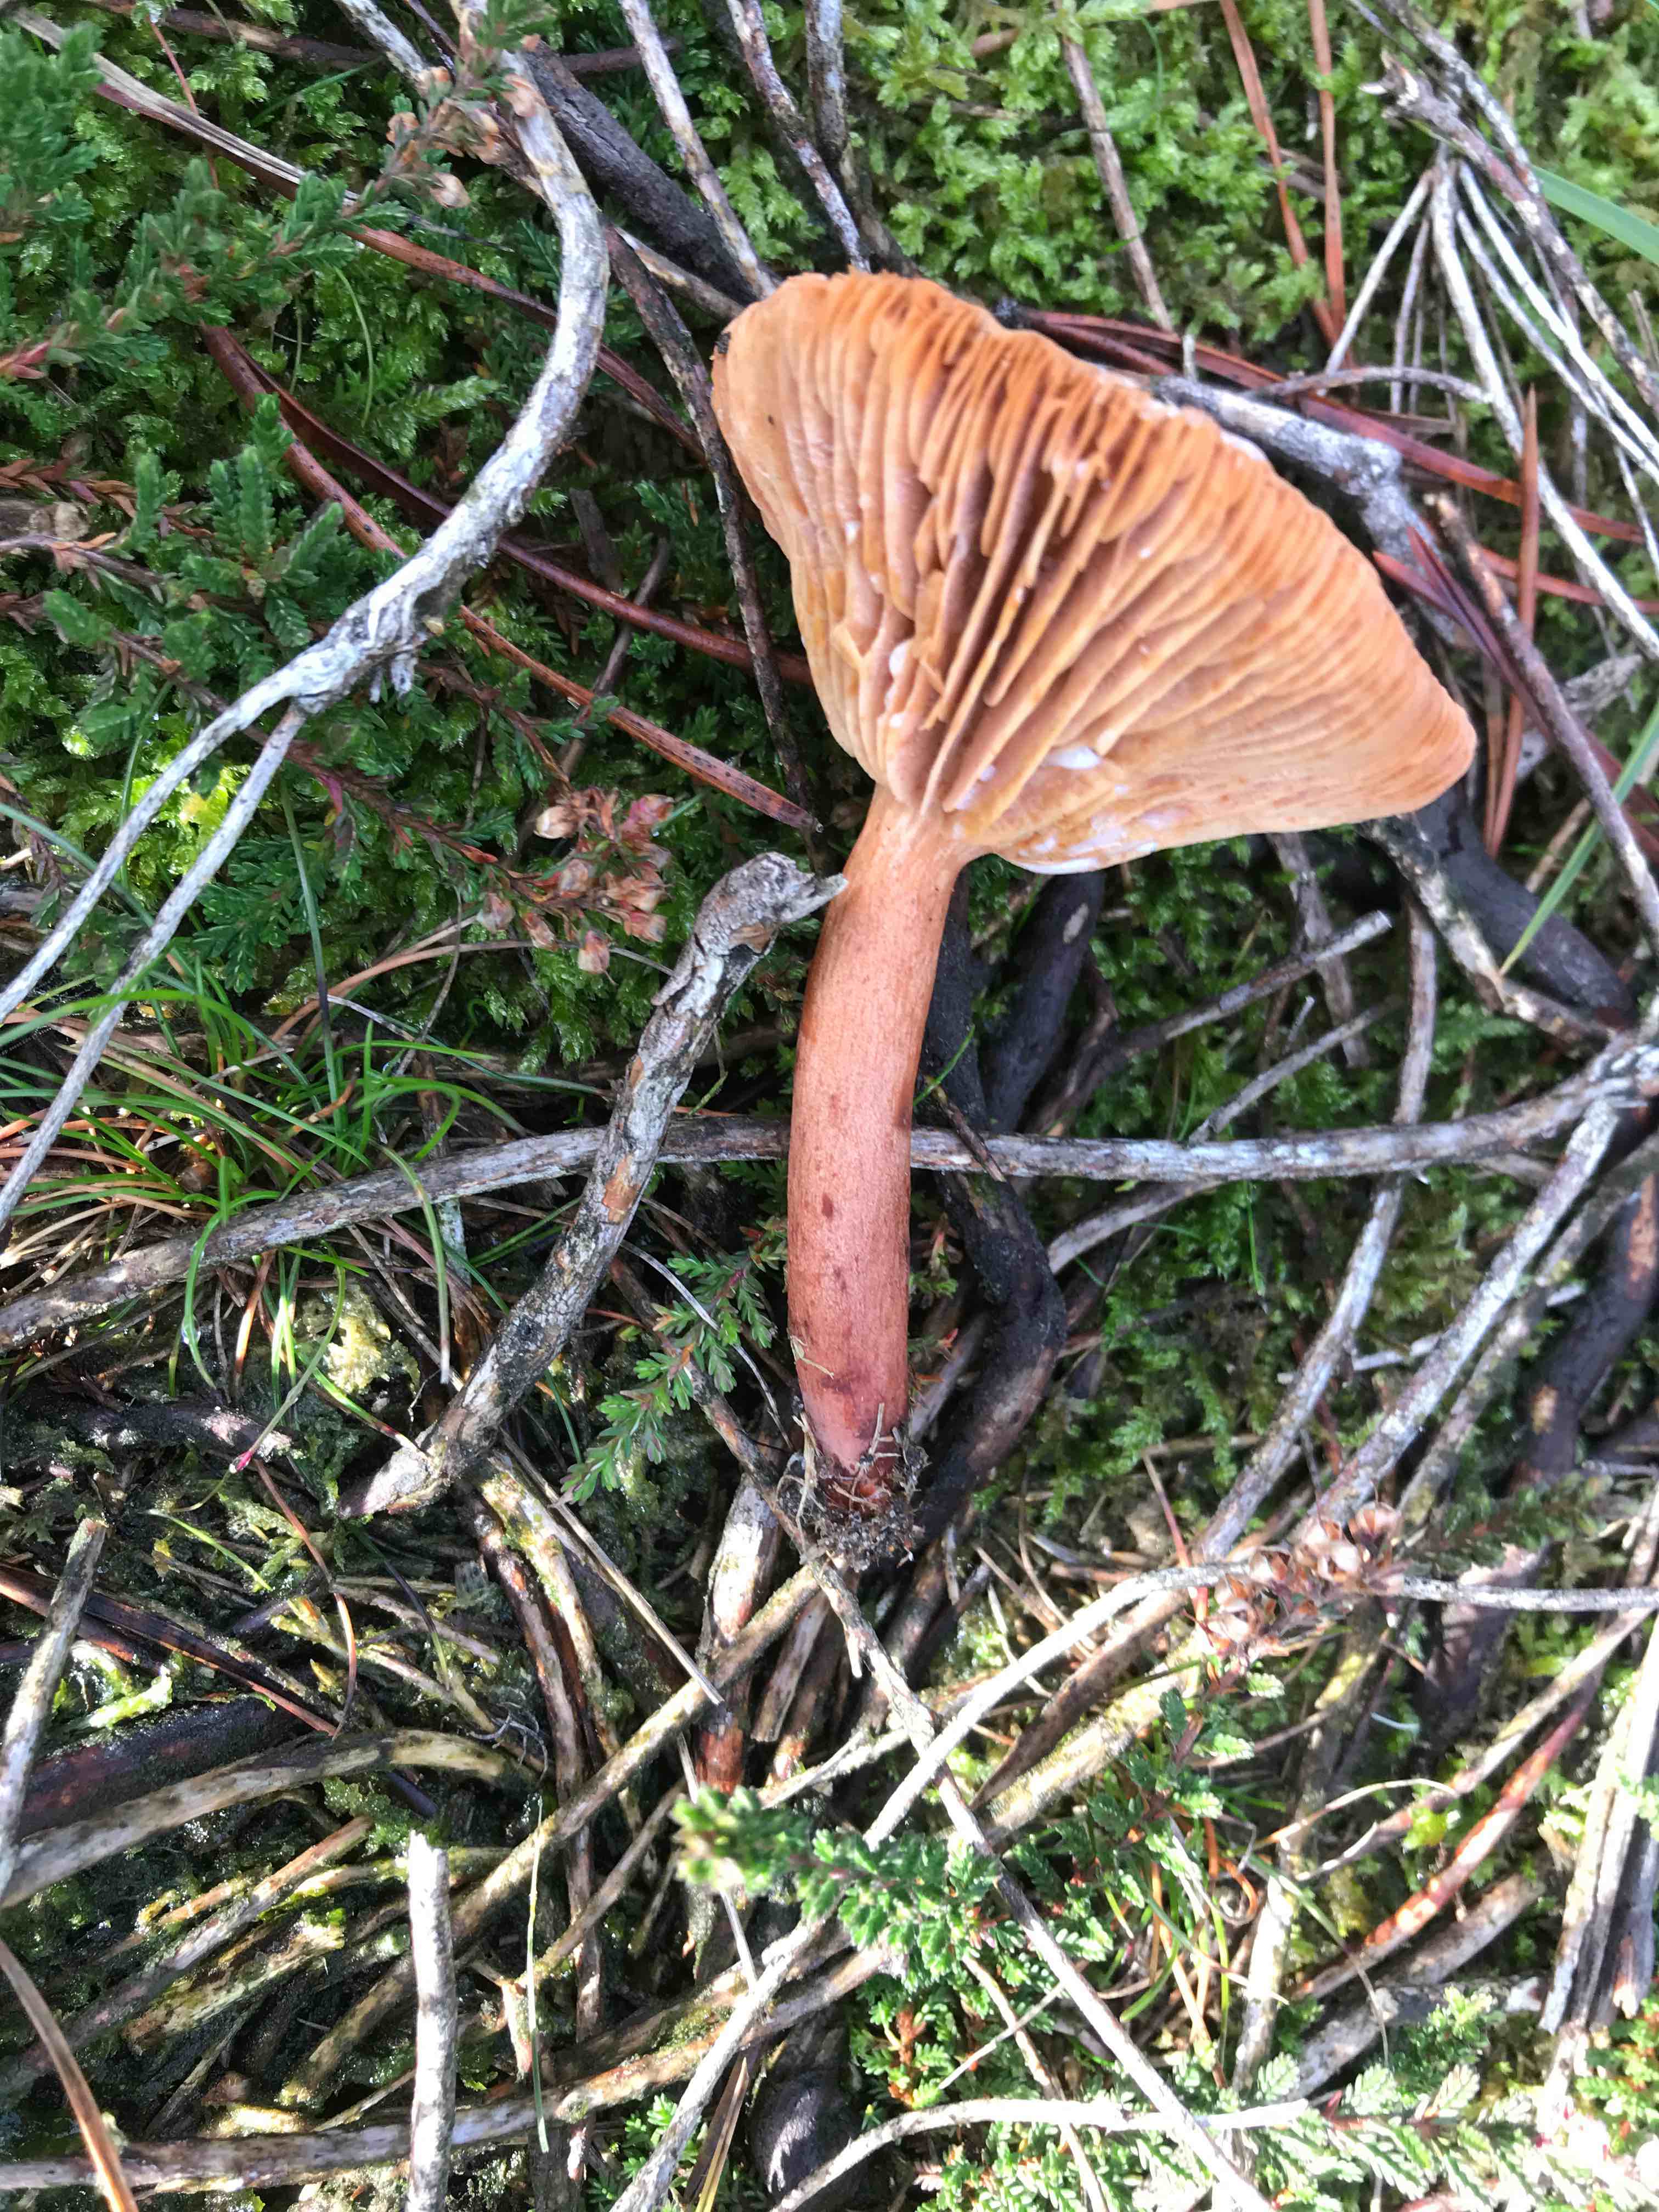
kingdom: Fungi
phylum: Basidiomycota
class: Agaricomycetes
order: Russulales
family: Russulaceae
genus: Lactarius
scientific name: Lactarius hepaticus
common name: leverbrun mælkehat
